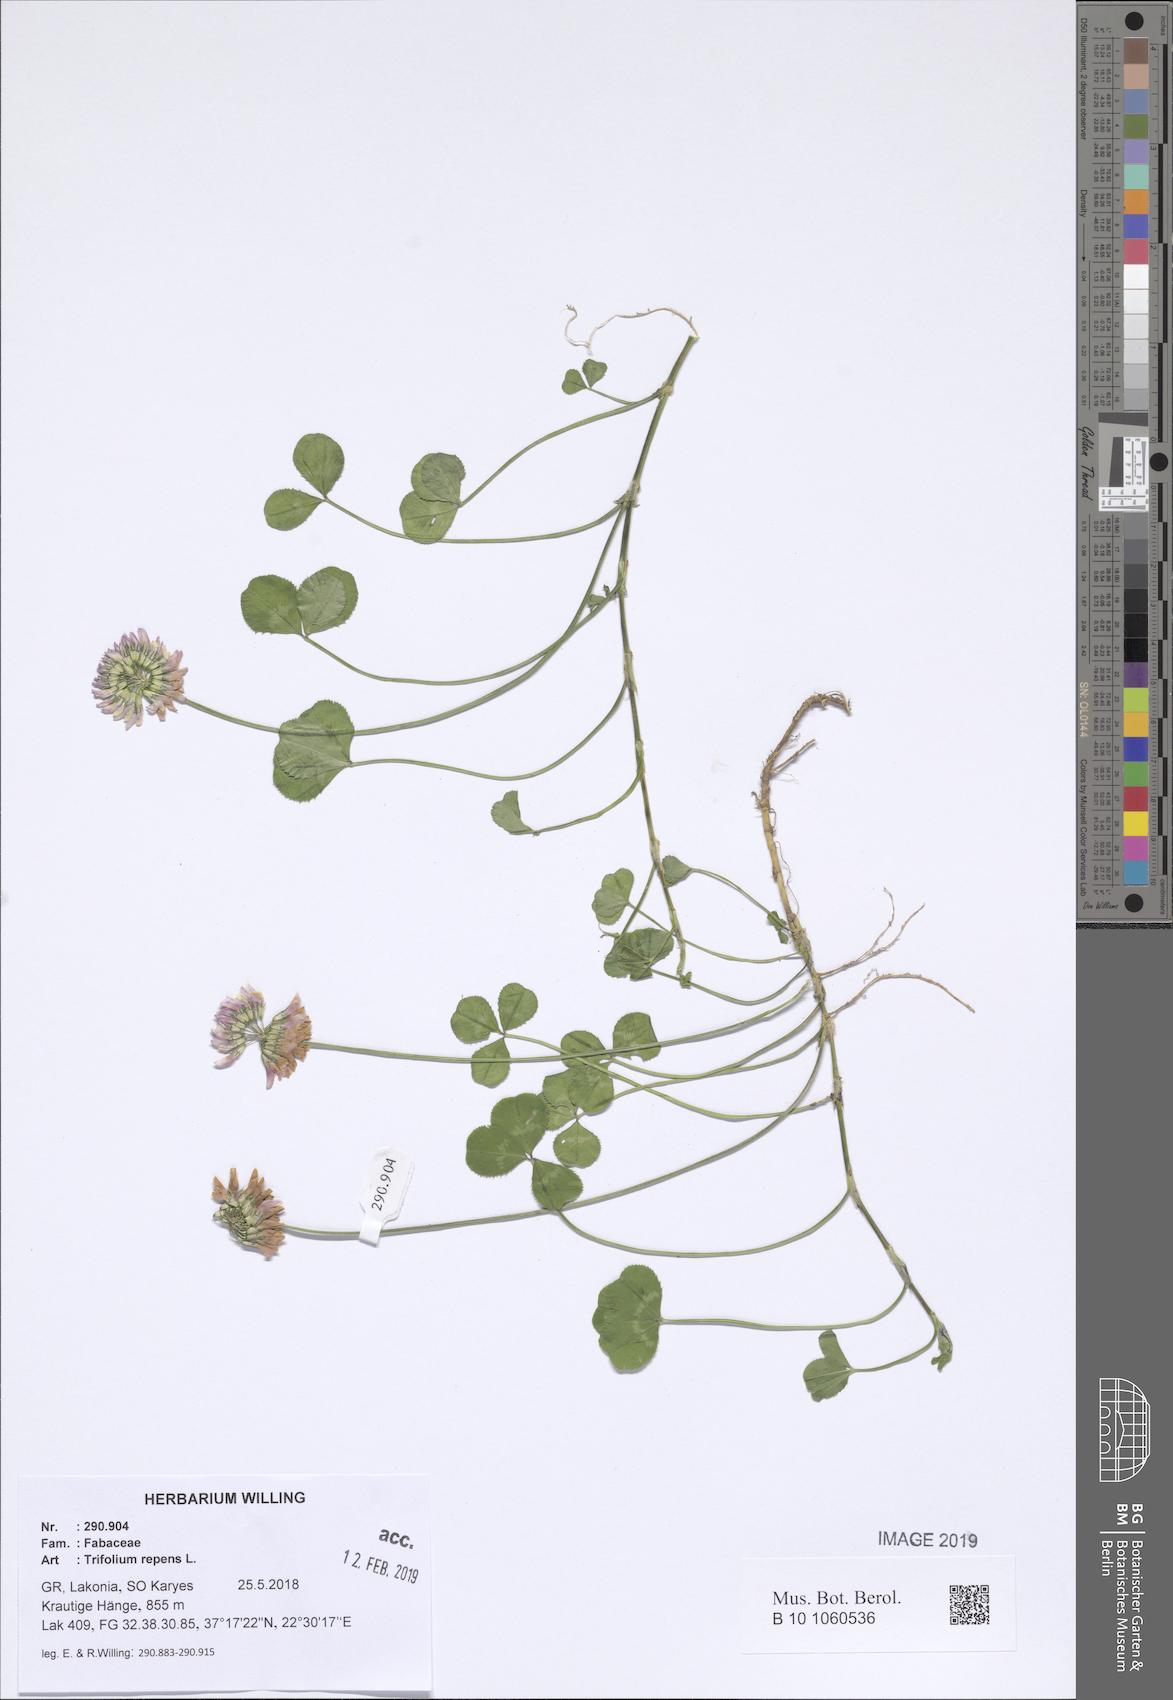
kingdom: Plantae
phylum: Tracheophyta
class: Magnoliopsida
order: Fabales
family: Fabaceae
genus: Trifolium
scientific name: Trifolium repens
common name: White clover
